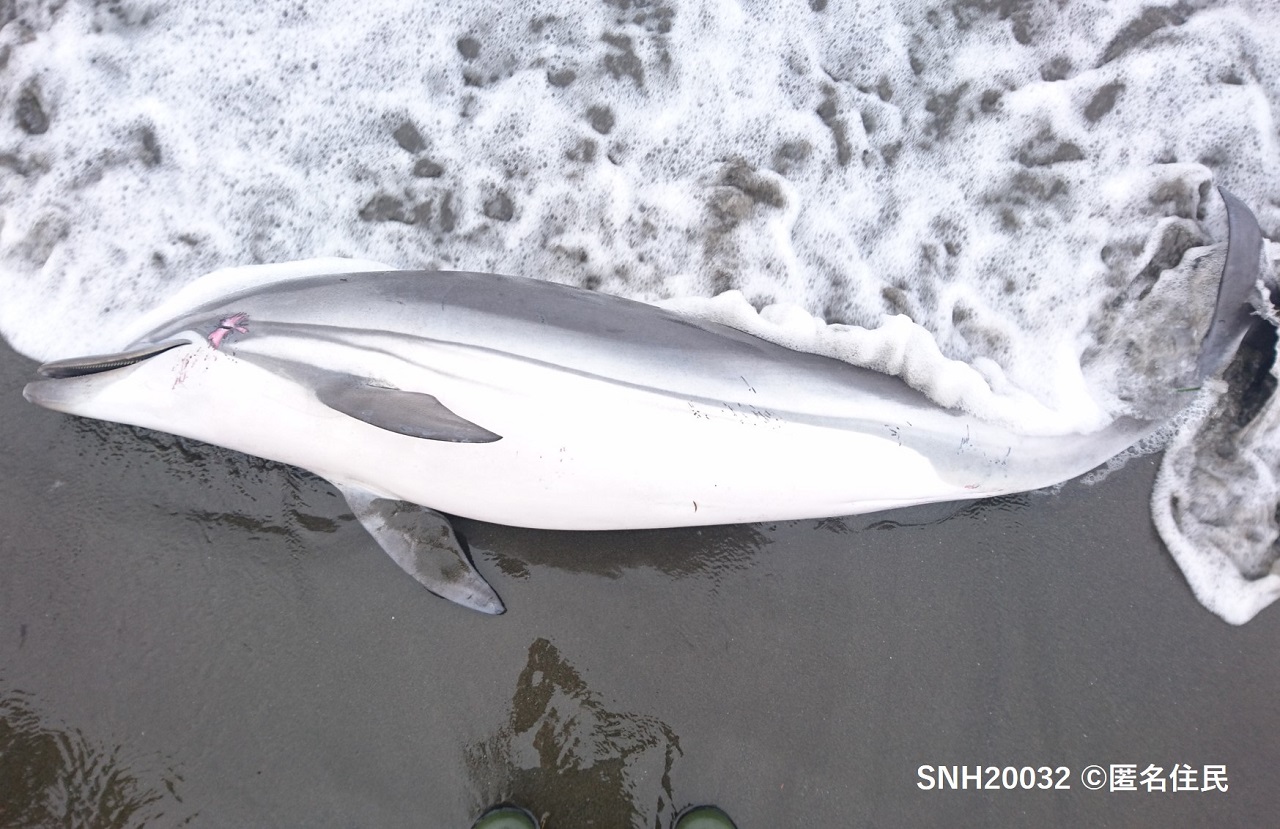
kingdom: Animalia
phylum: Chordata
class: Mammalia
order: Cetacea
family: Delphinidae
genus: Stenella
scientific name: Stenella coeruleoalba
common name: Striped dolphin
